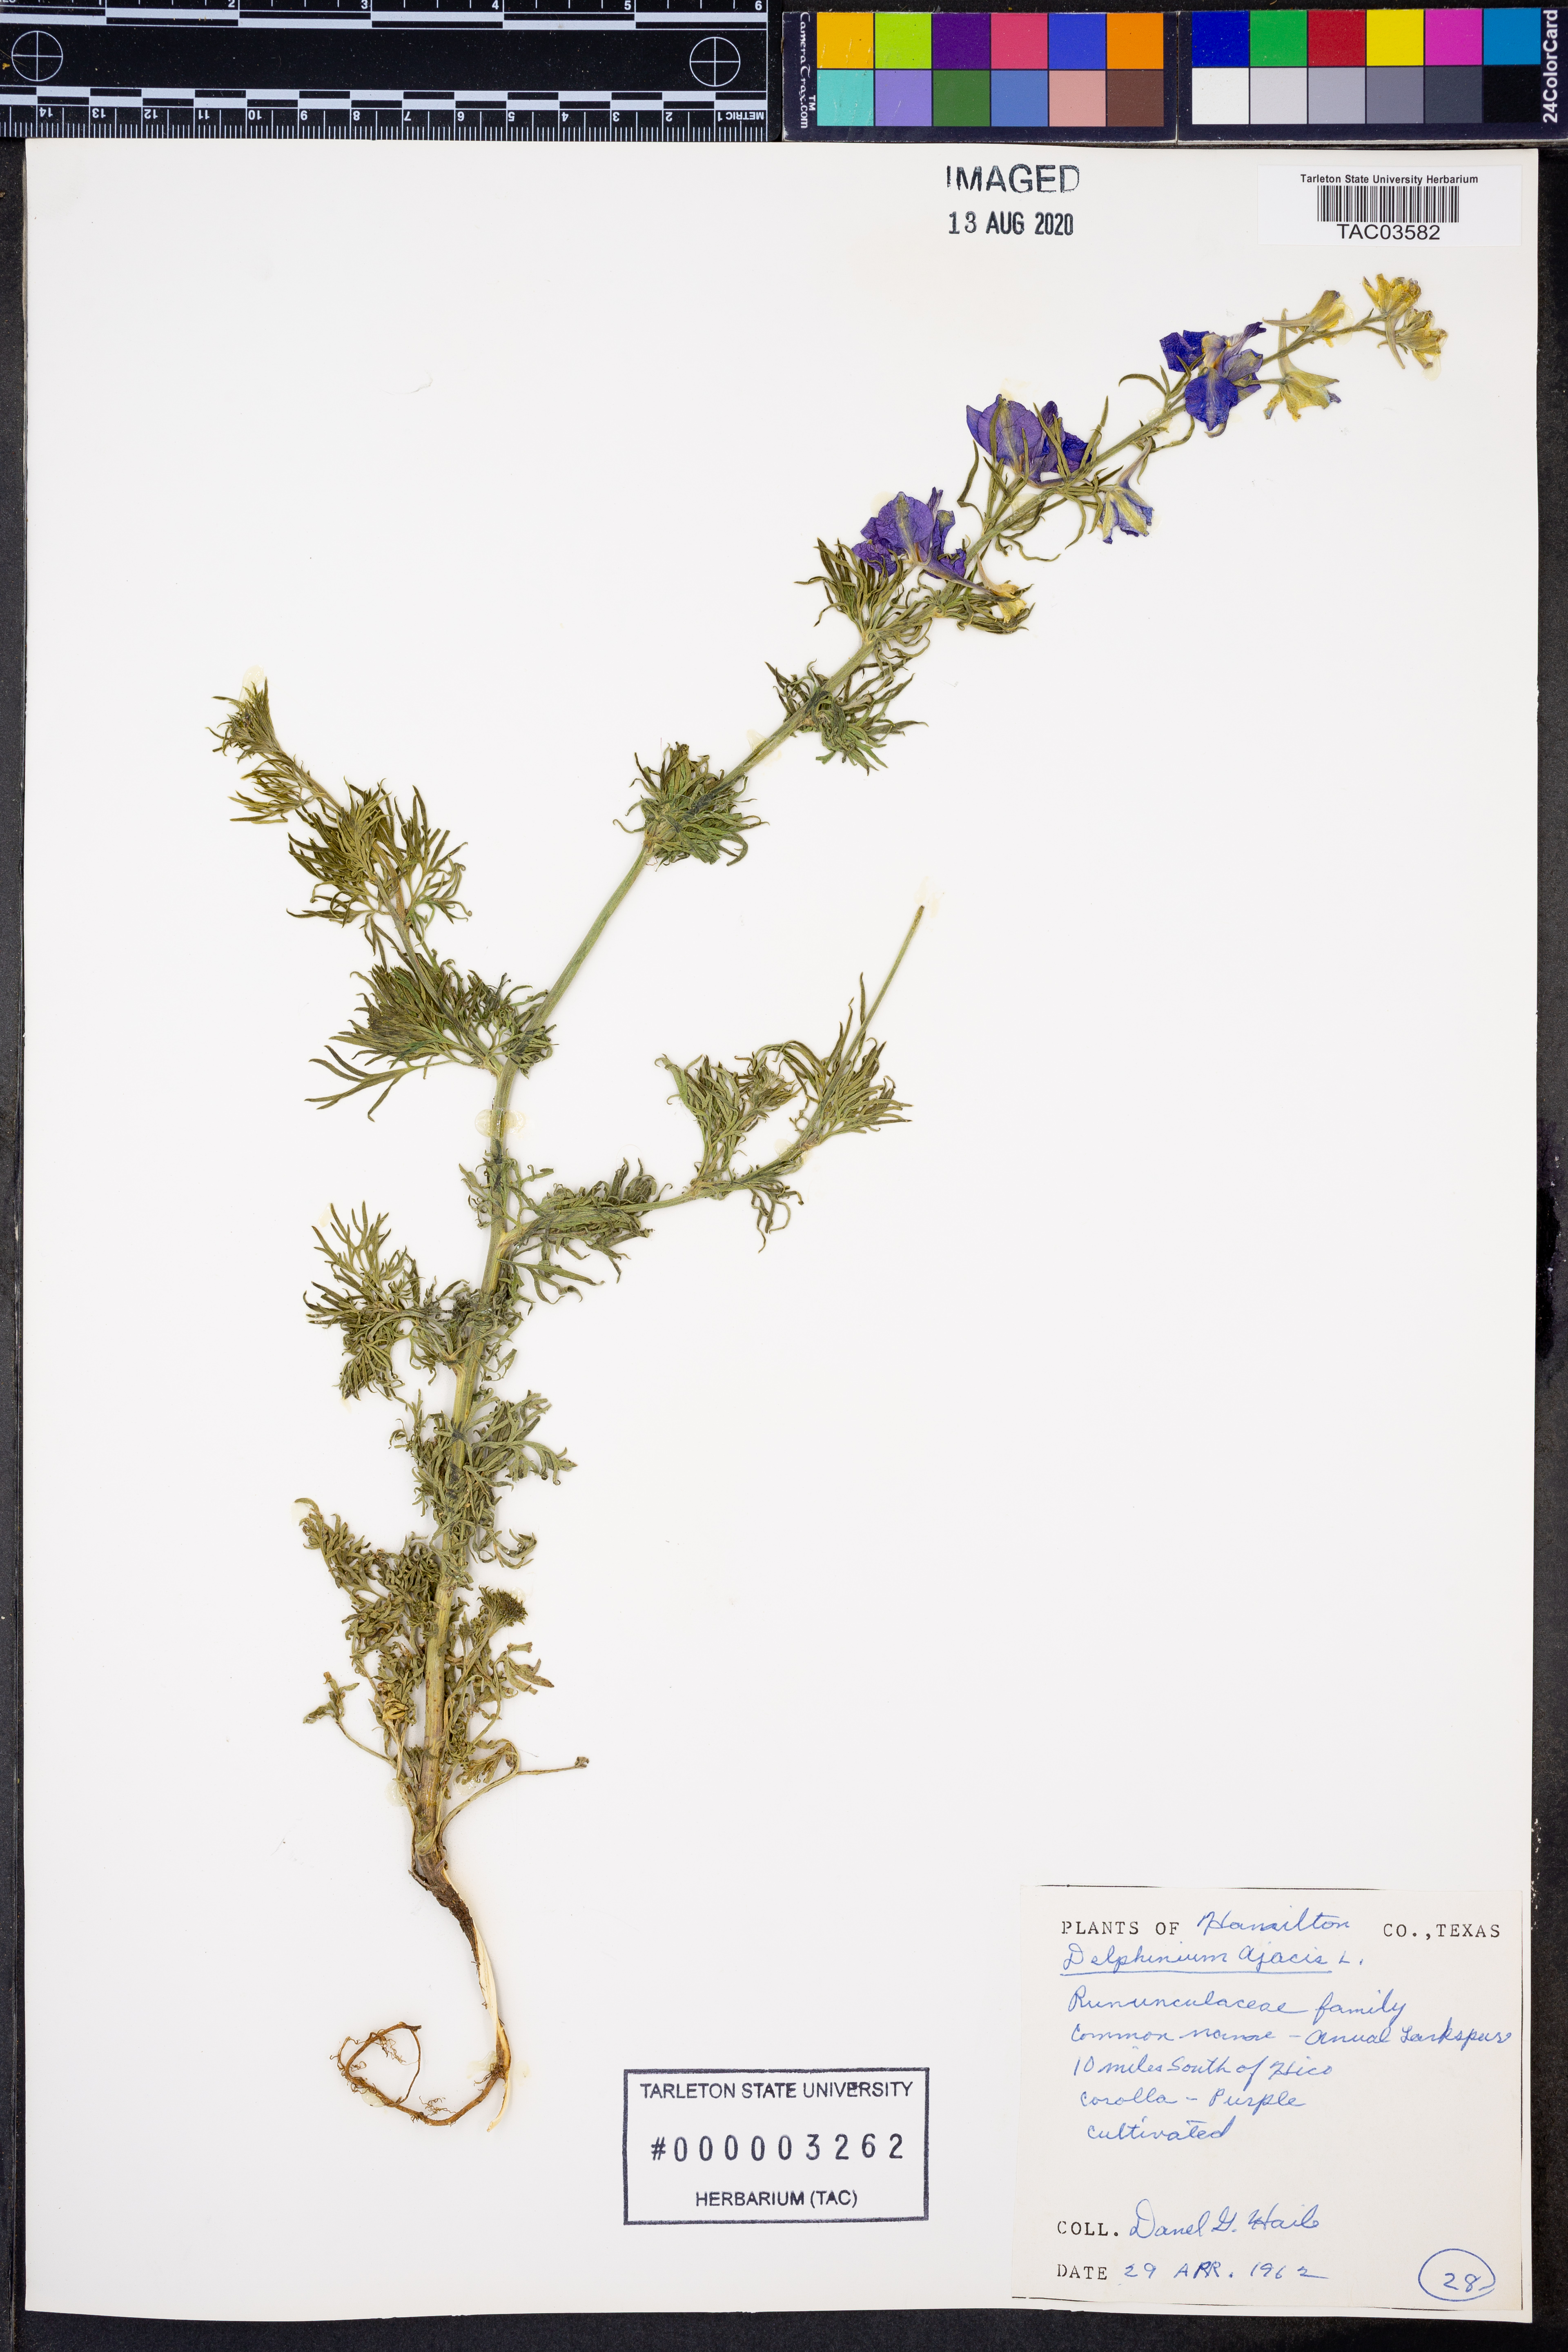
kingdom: Plantae
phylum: Tracheophyta
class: Magnoliopsida
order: Ranunculales
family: Ranunculaceae
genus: Delphinium
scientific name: Delphinium ajacis
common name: Doubtful knight's-spur
